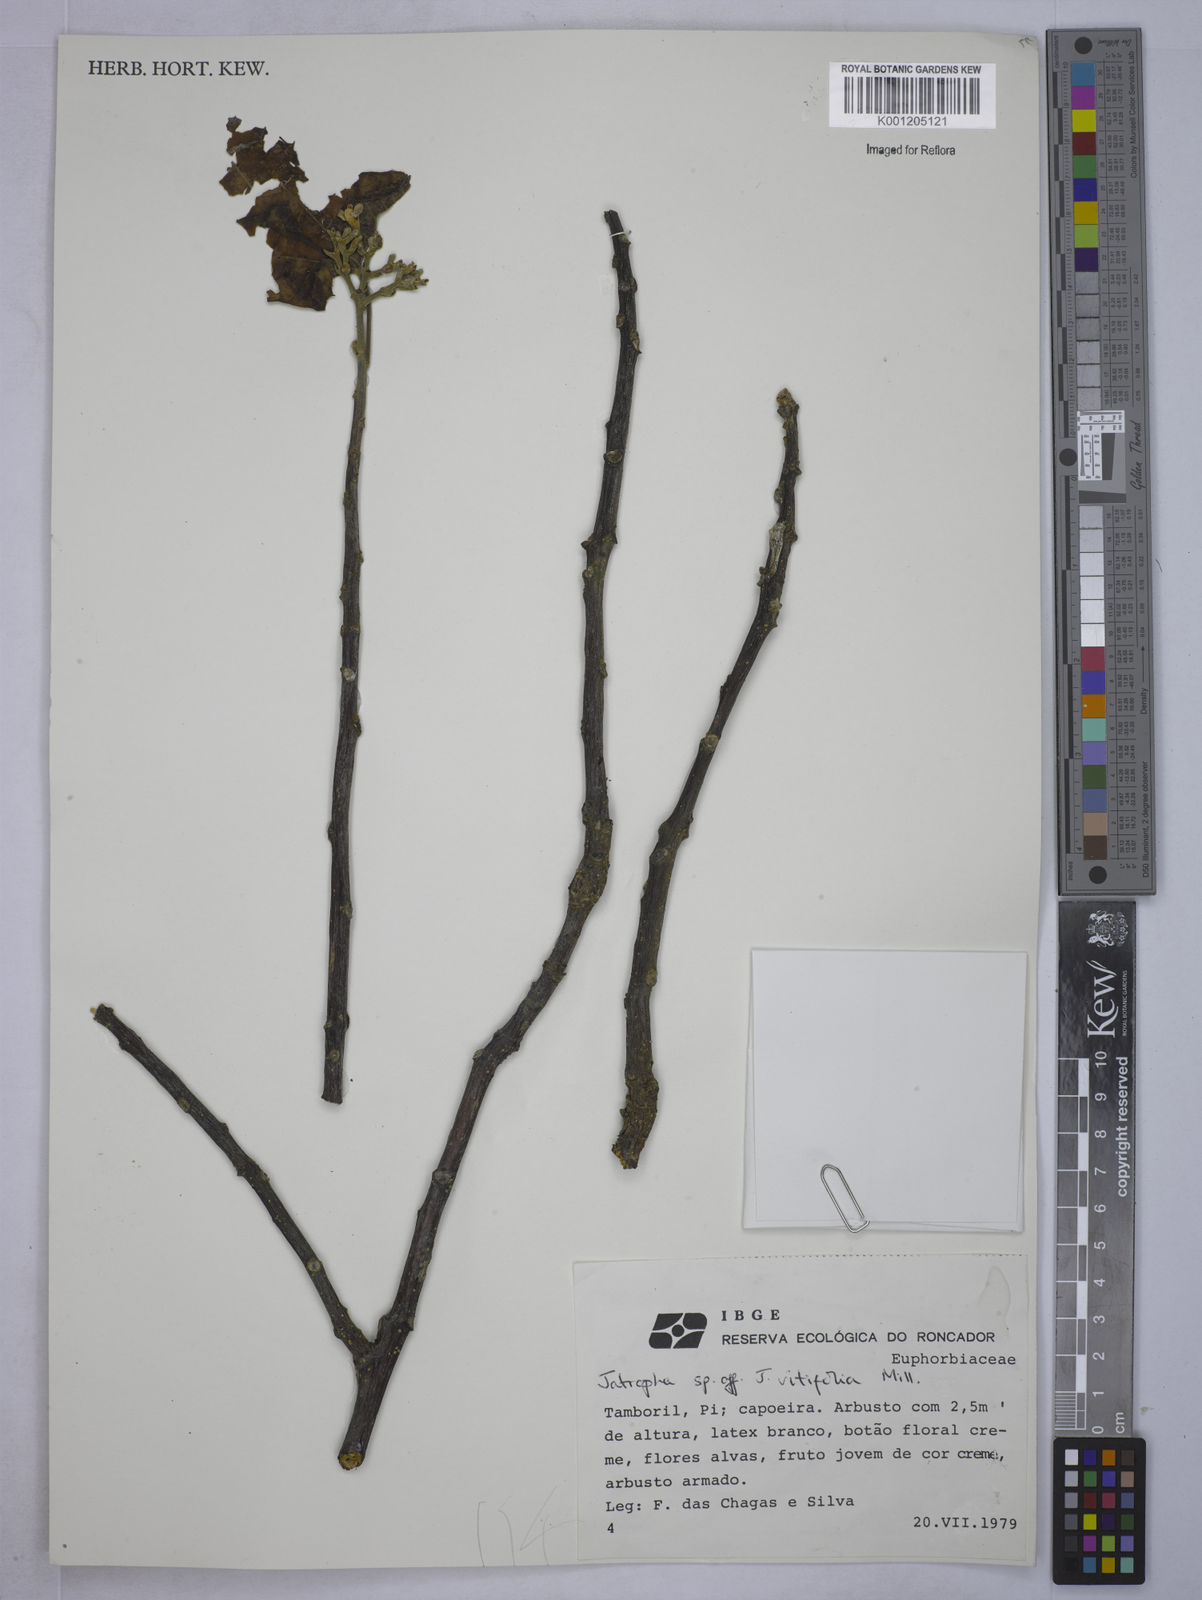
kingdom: Plantae
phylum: Tracheophyta
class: Magnoliopsida
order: Malpighiales
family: Euphorbiaceae
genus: Cnidoscolus
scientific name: Cnidoscolus vitifolius
